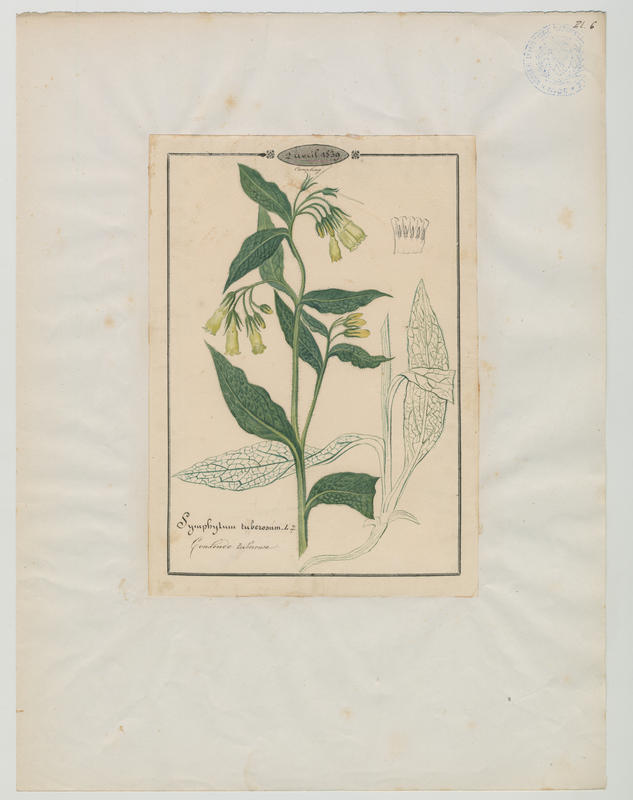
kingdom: Plantae
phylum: Tracheophyta
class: Magnoliopsida
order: Boraginales
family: Boraginaceae
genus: Symphytum
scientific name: Symphytum tuberosum
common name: Tuberous comfrey
